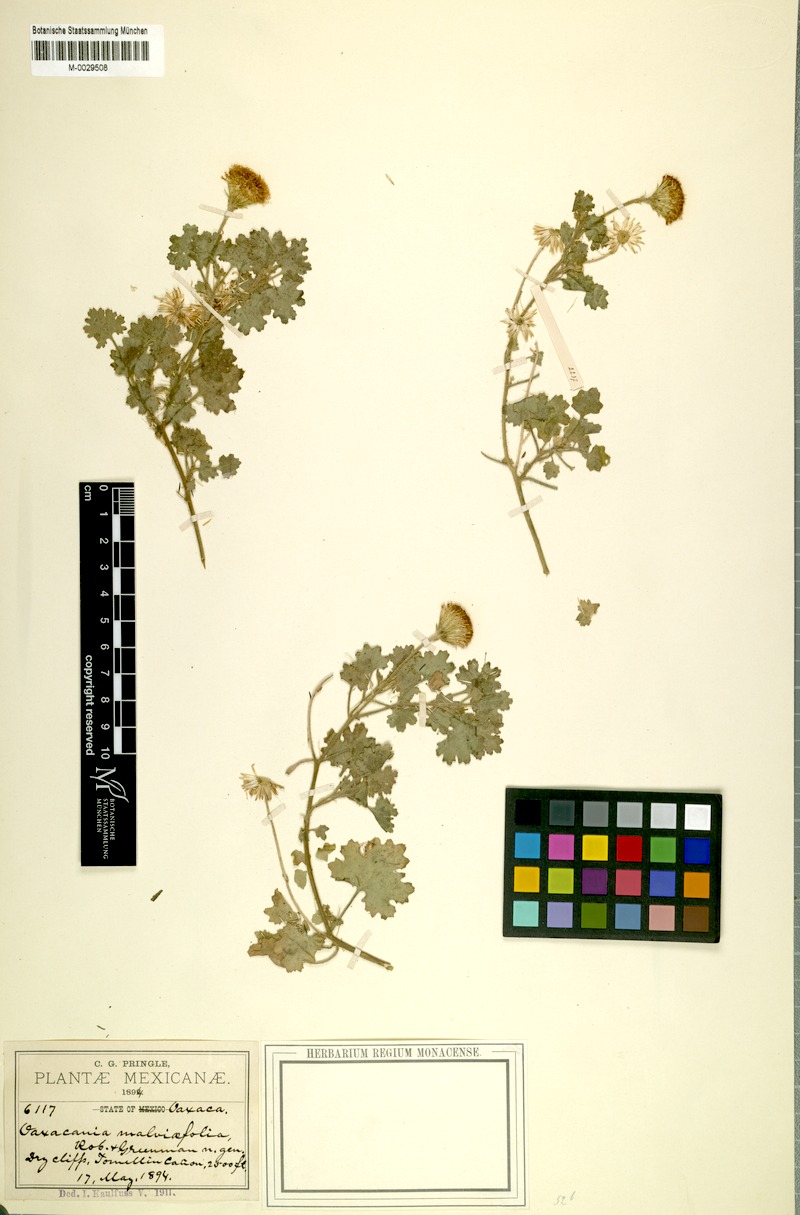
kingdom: Plantae
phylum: Tracheophyta
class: Magnoliopsida
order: Asterales
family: Asteraceae
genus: Oaxacania
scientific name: Oaxacania malvifolia
